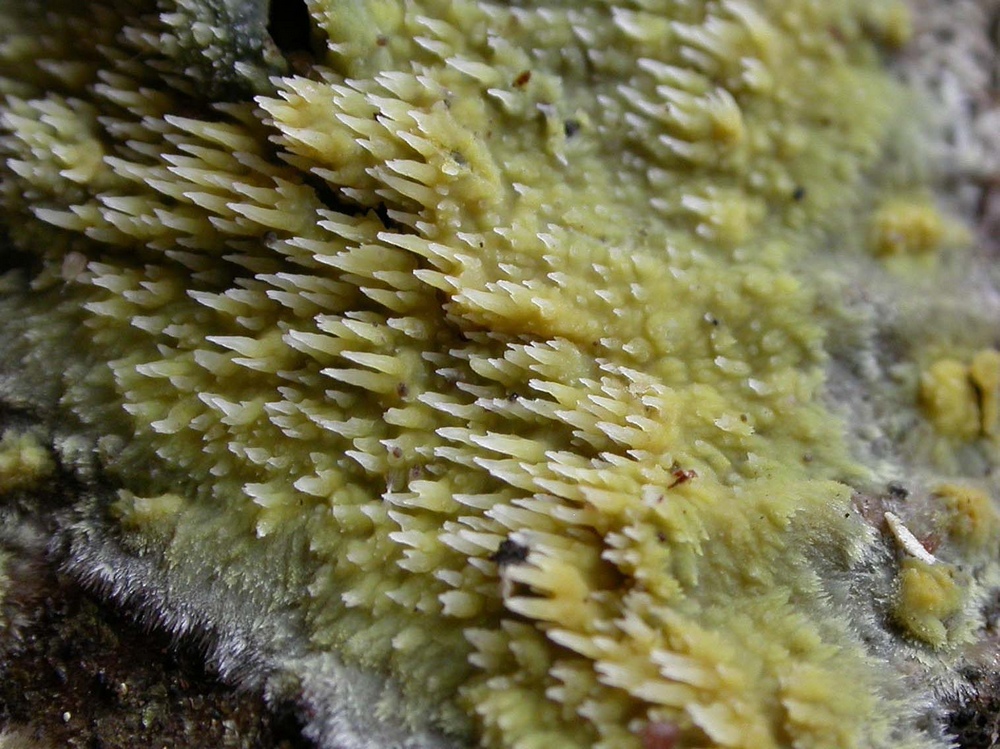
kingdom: Fungi
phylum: Basidiomycota
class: Agaricomycetes
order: Polyporales
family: Meruliaceae
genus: Mycoacia
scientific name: Mycoacia uda
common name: citrongul vokspig
